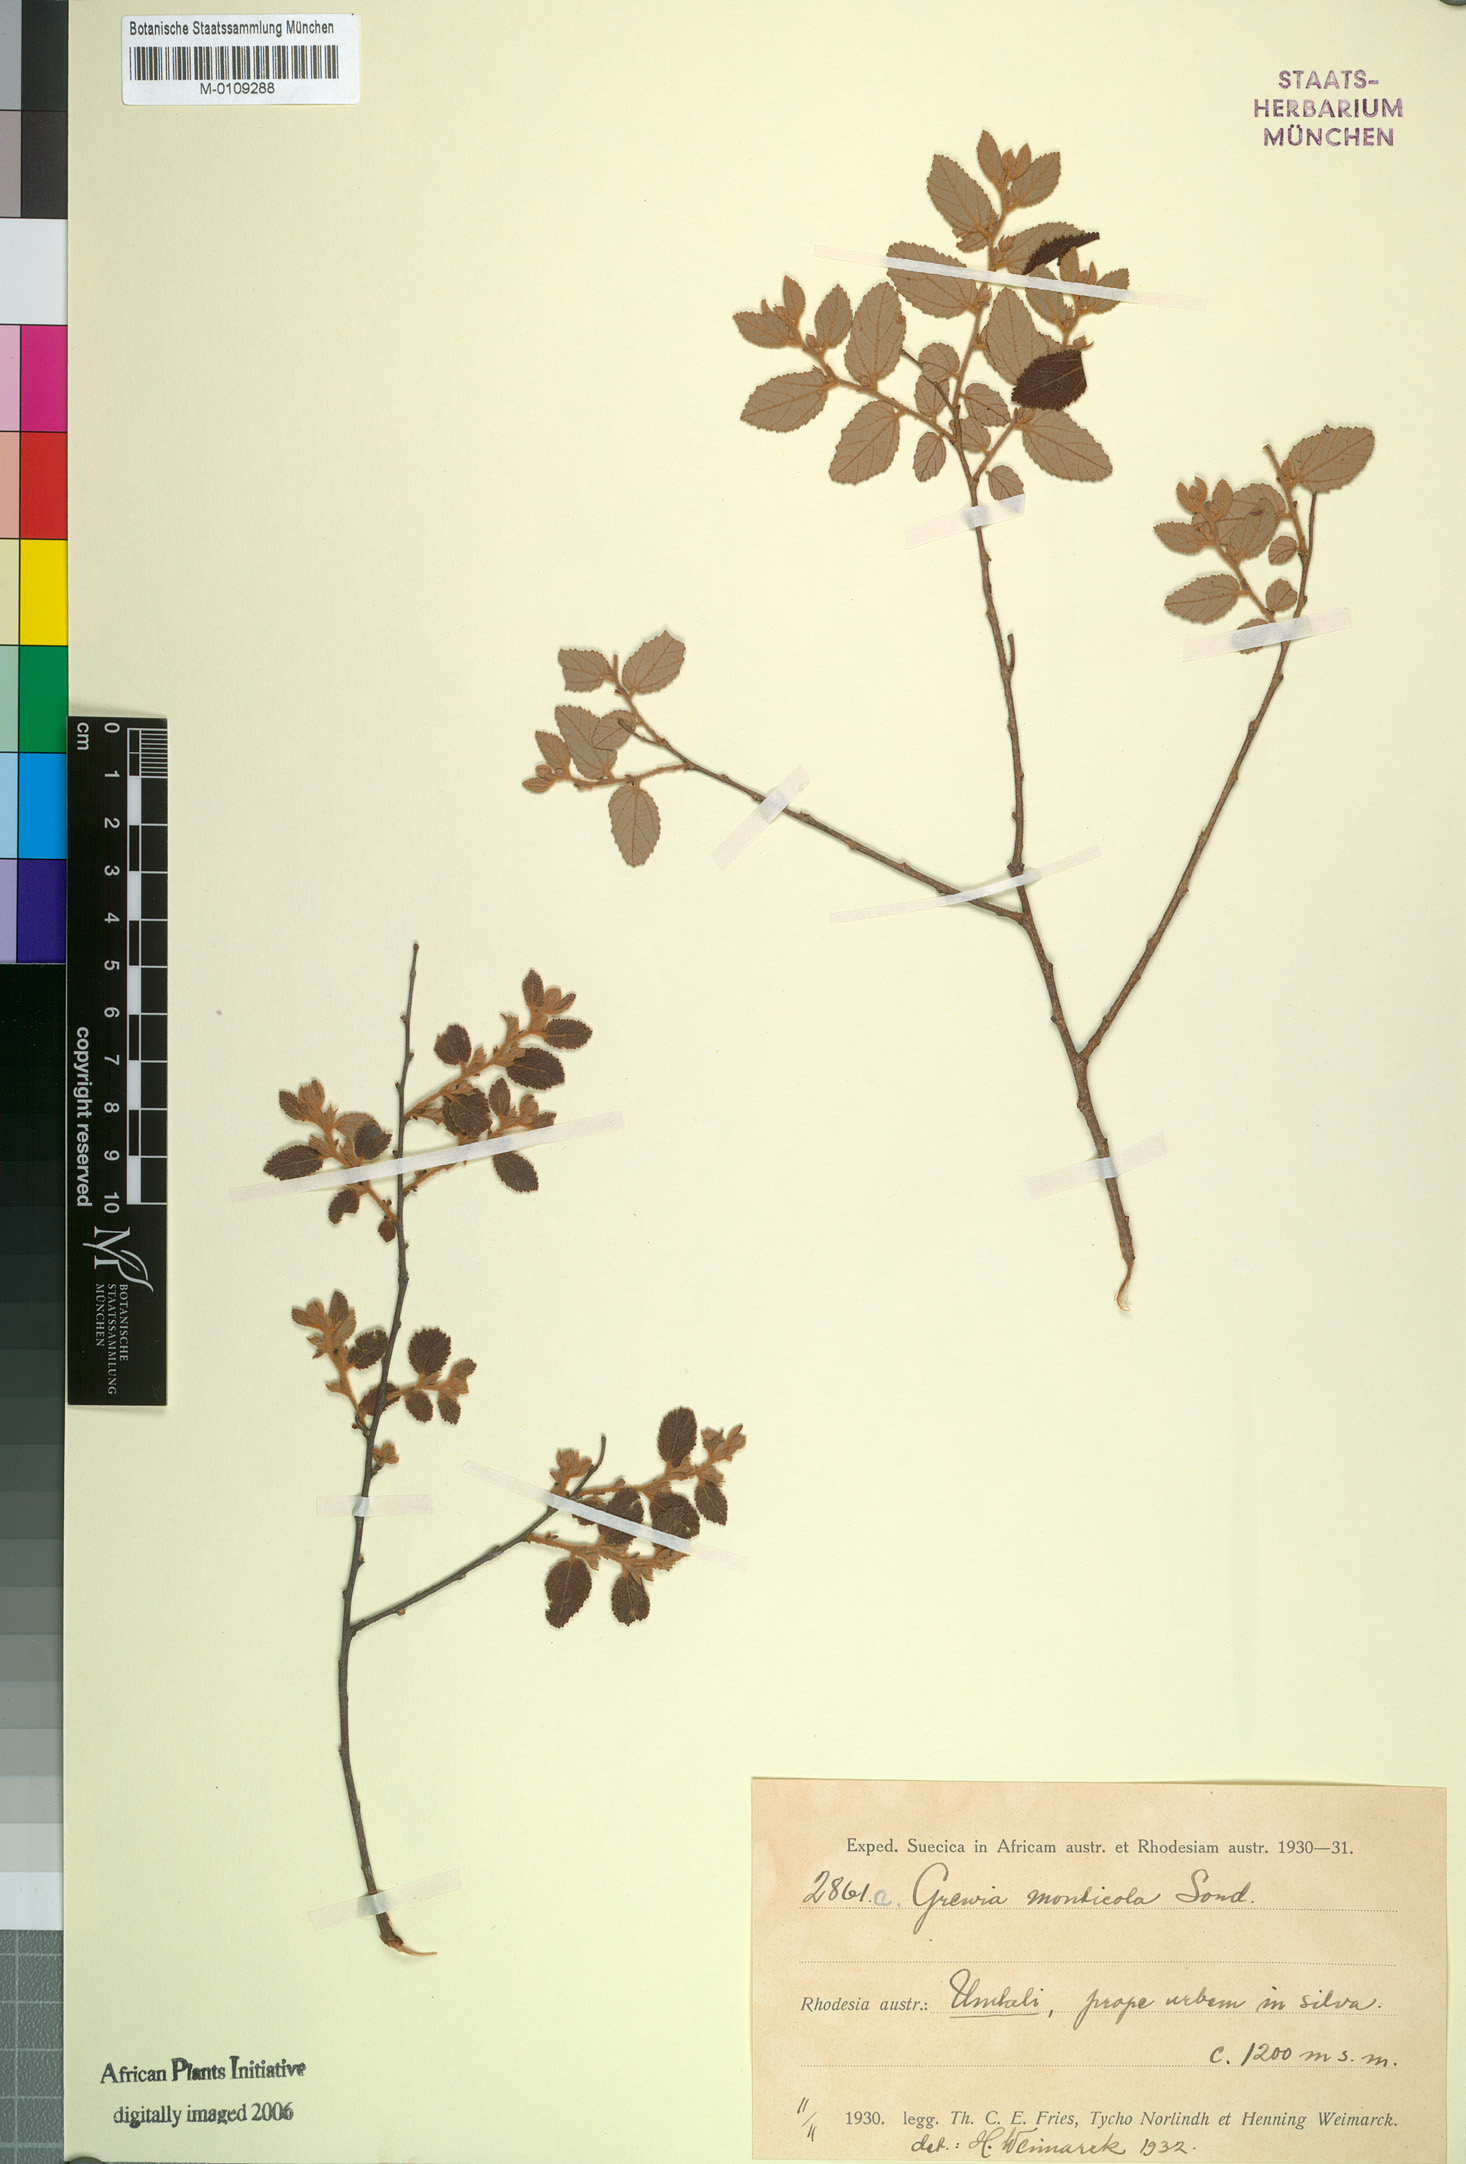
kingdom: Plantae
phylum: Tracheophyta
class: Magnoliopsida
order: Malvales
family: Malvaceae
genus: Grewia
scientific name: Grewia monticola
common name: Grey raisin
